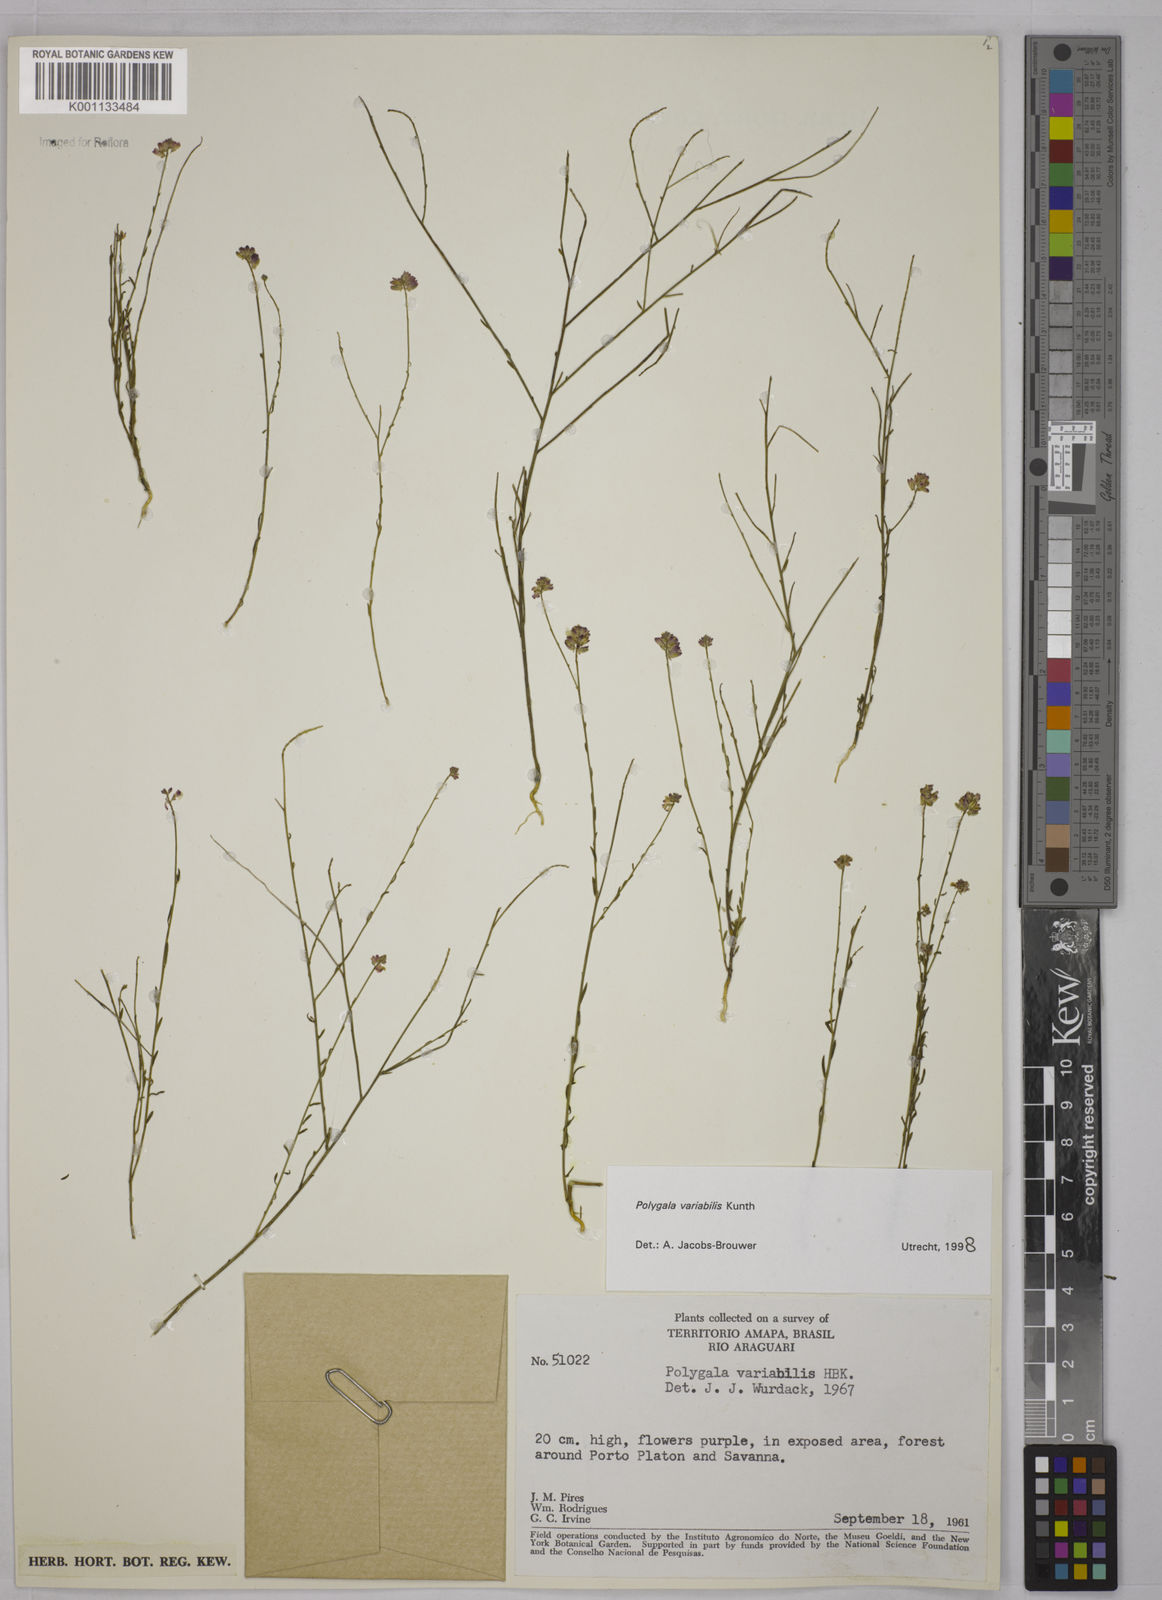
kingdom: Plantae
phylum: Tracheophyta
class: Magnoliopsida
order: Fabales
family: Polygalaceae
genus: Polygala
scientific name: Polygala trichosperma
